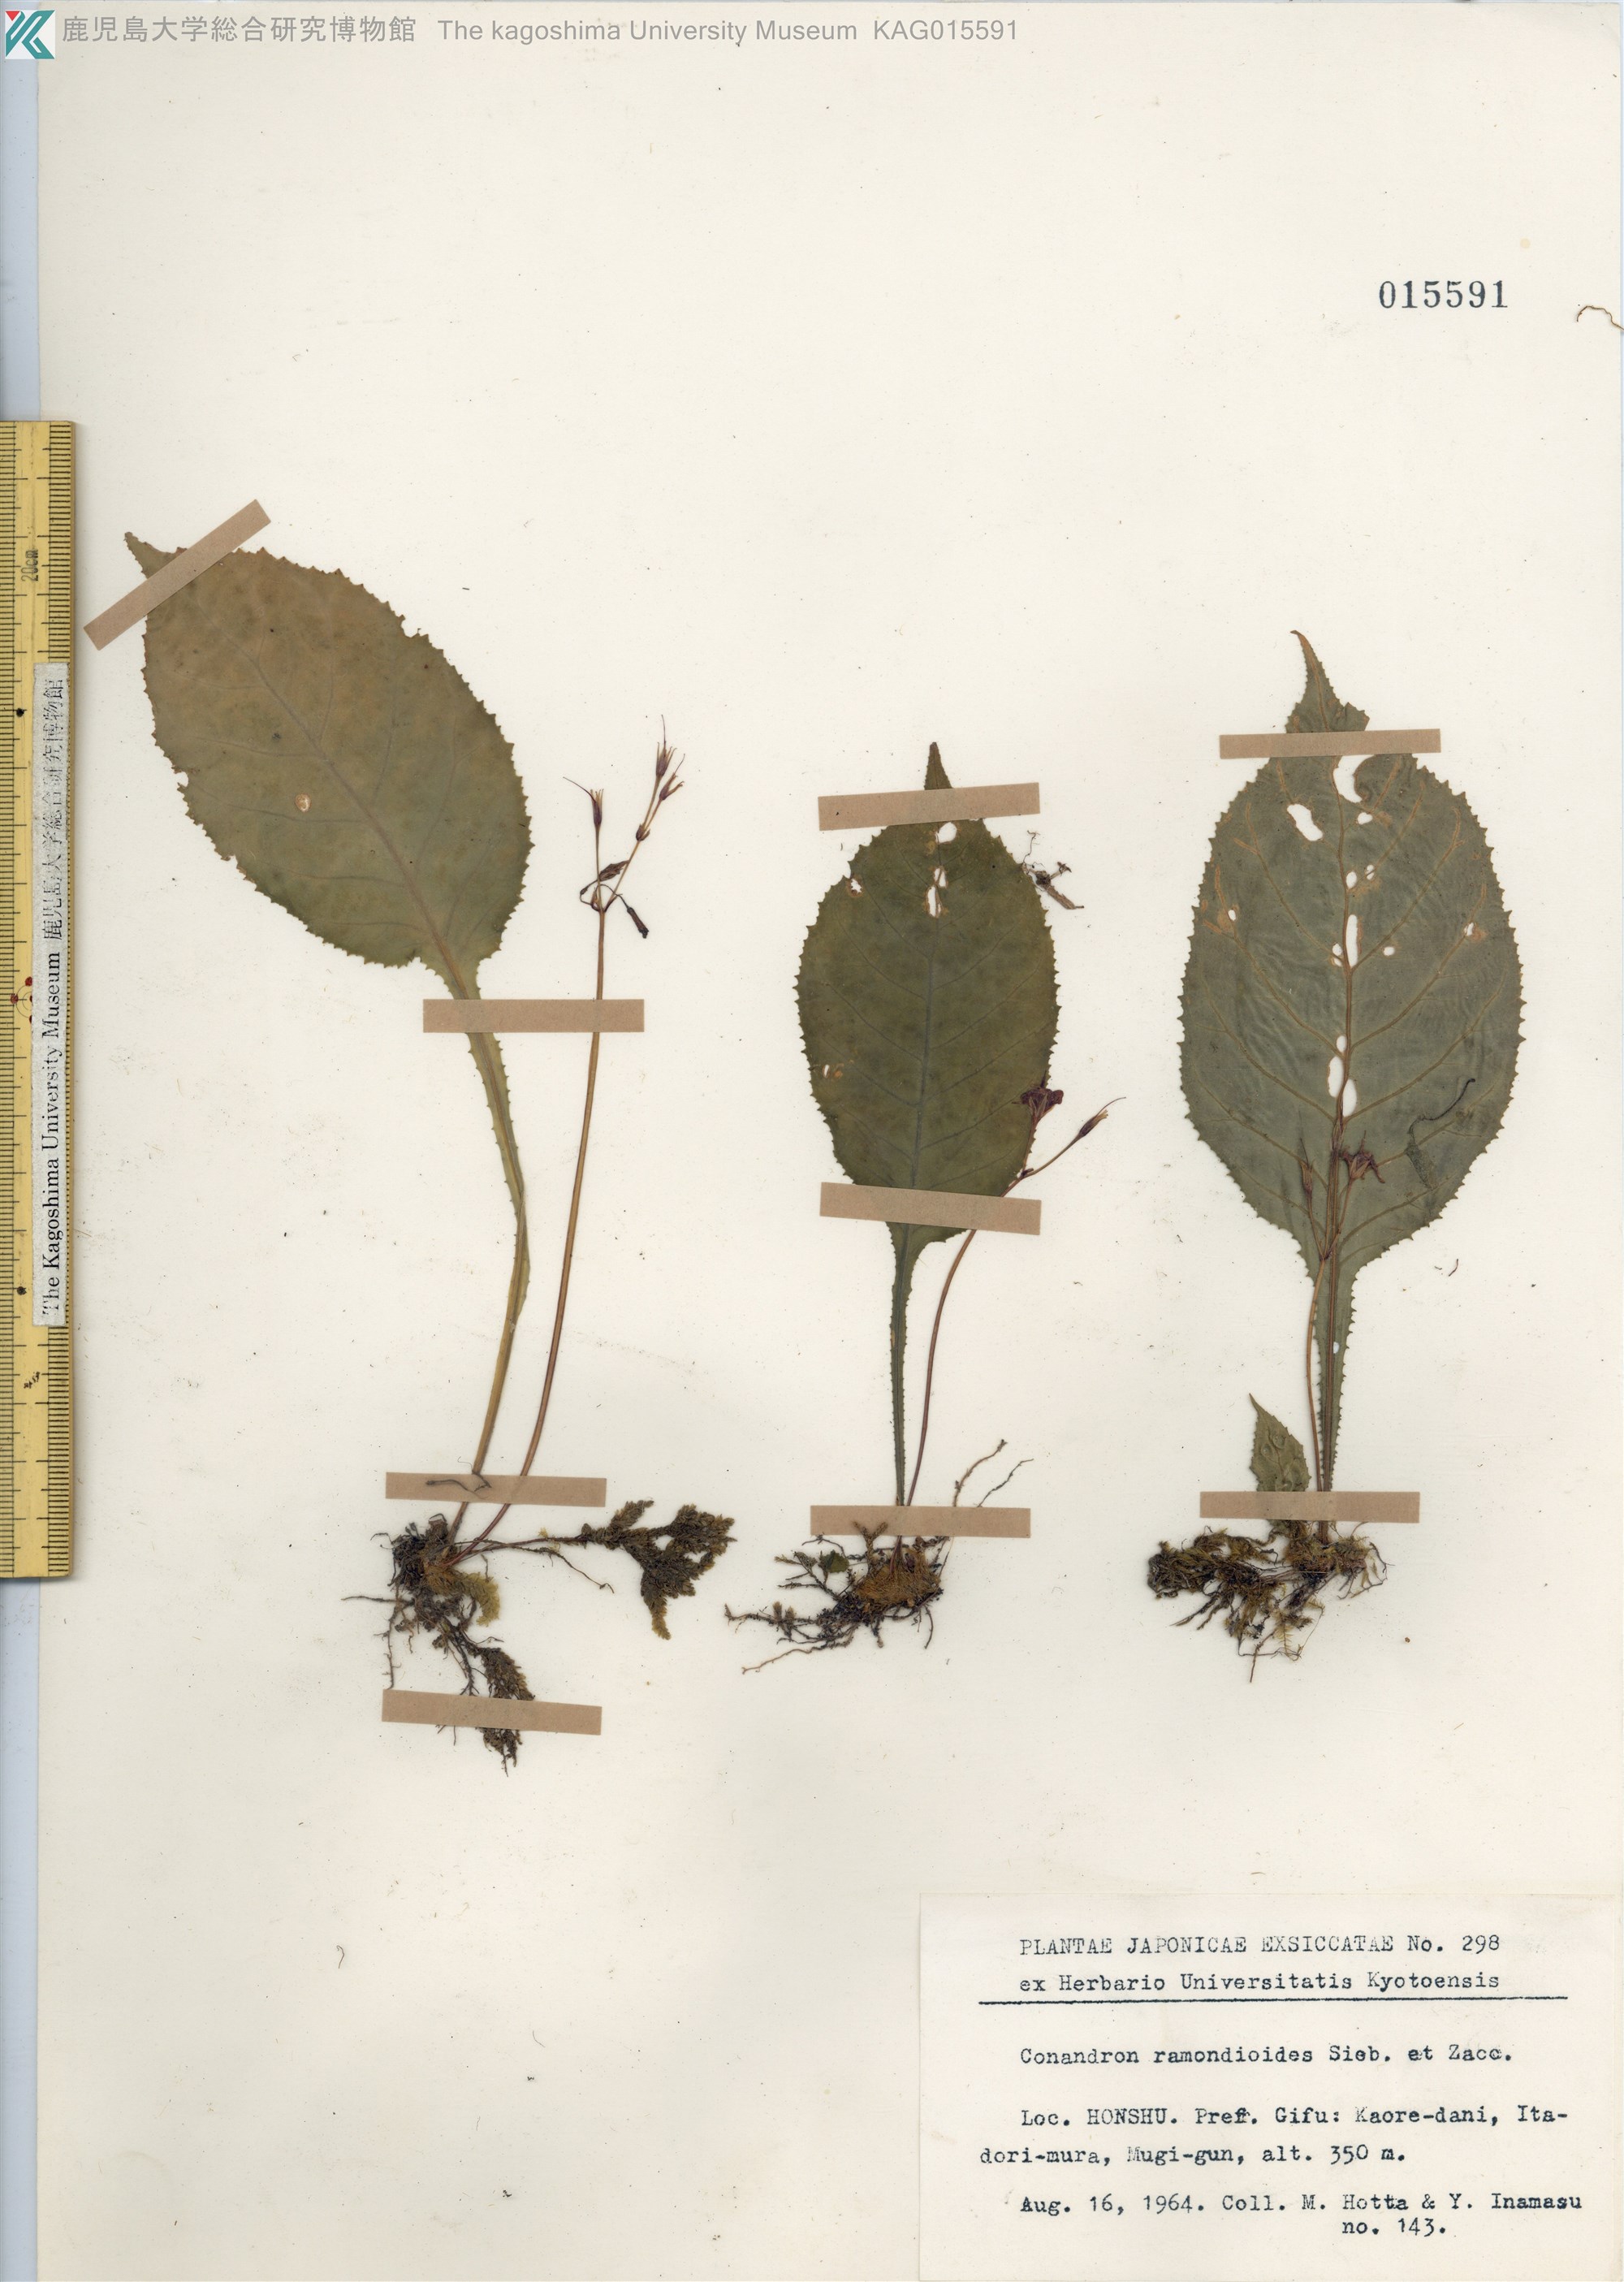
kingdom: Plantae
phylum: Tracheophyta
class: Magnoliopsida
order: Lamiales
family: Gesneriaceae
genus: Conandron
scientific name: Conandron ramondioides
